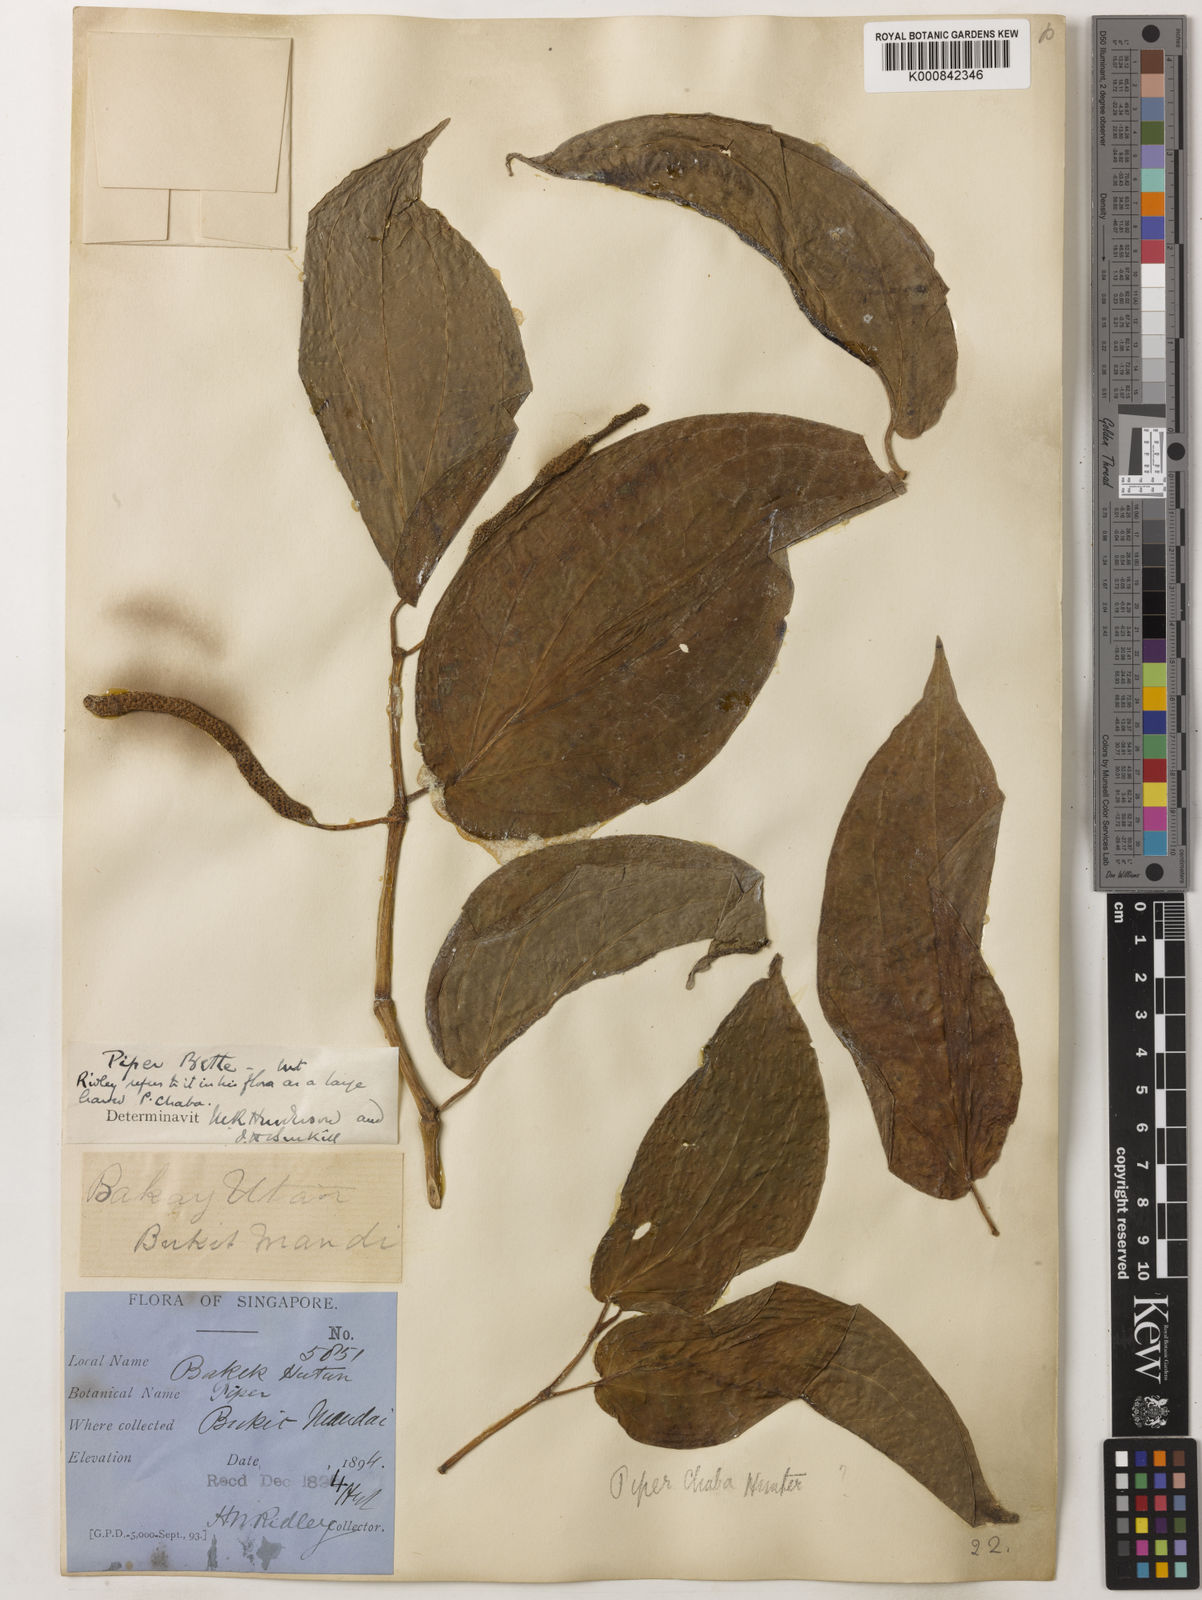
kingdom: Plantae
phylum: Tracheophyta
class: Magnoliopsida
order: Piperales
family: Piperaceae
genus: Piper
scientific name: Piper betle
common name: Betel pepper
